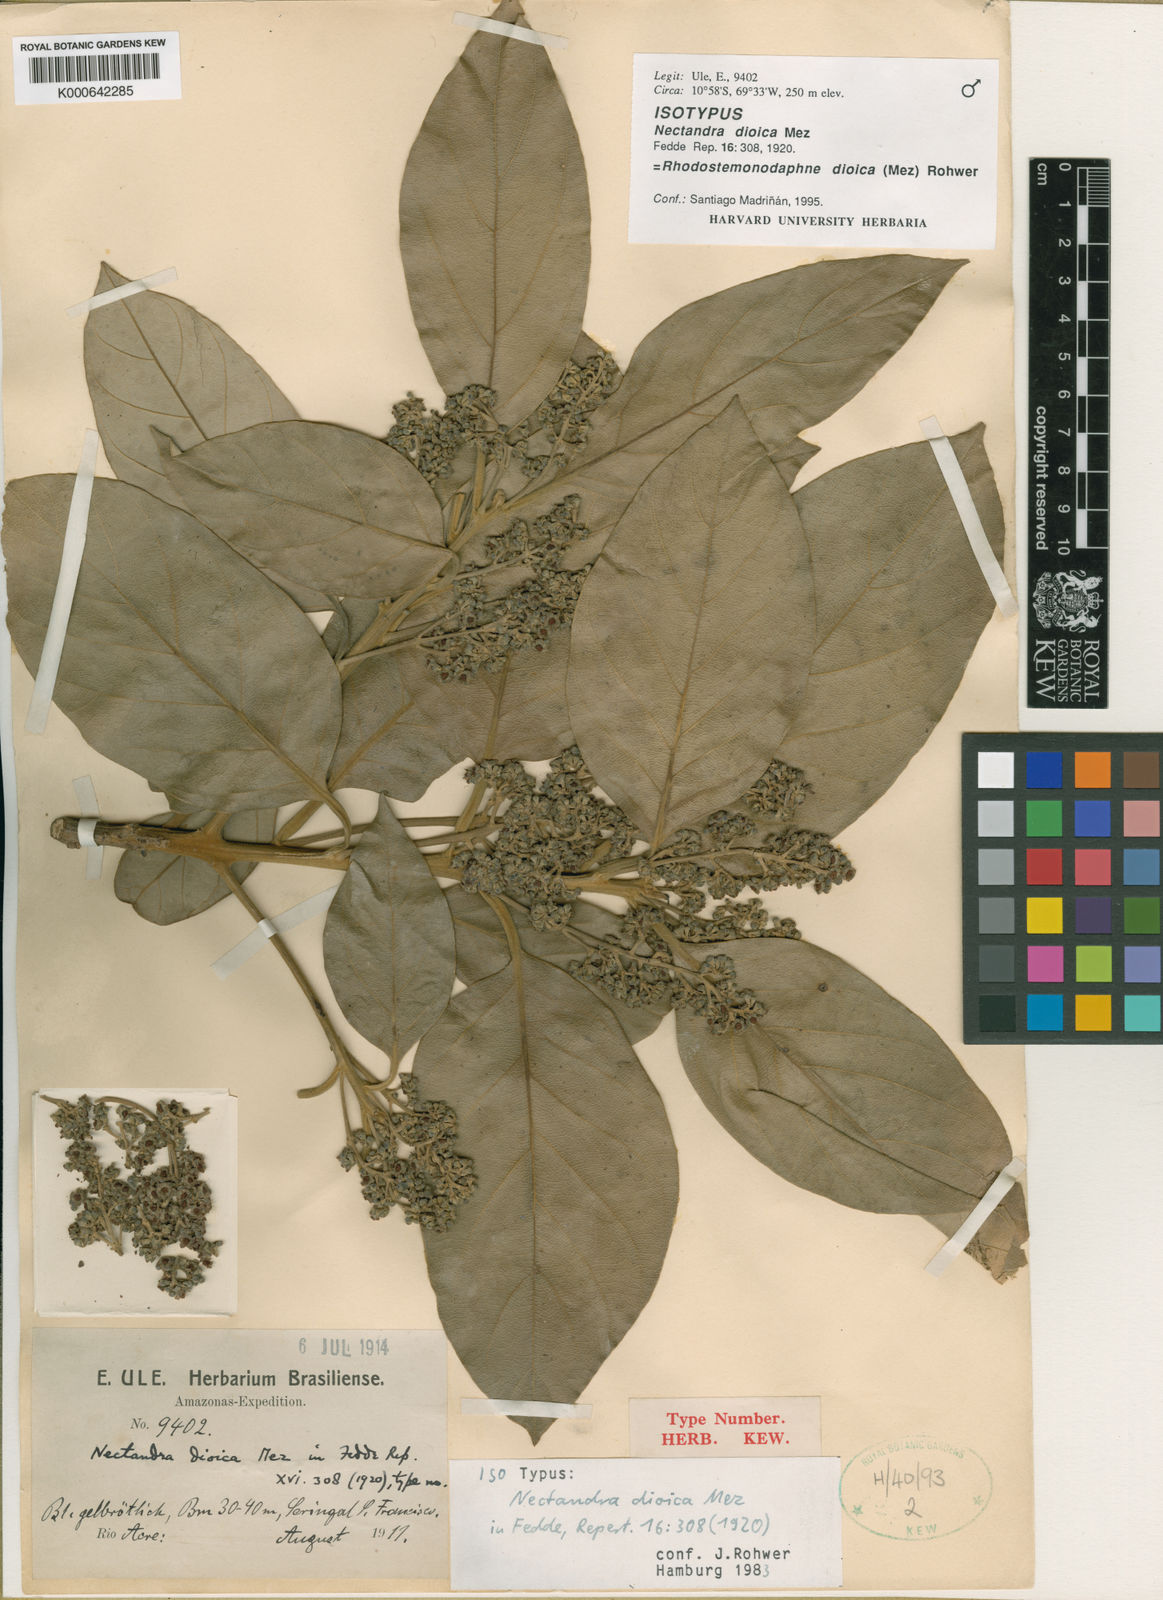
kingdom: Plantae
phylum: Tracheophyta
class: Magnoliopsida
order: Laurales
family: Lauraceae
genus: Rhodostemonodaphne
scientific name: Rhodostemonodaphne dioica
